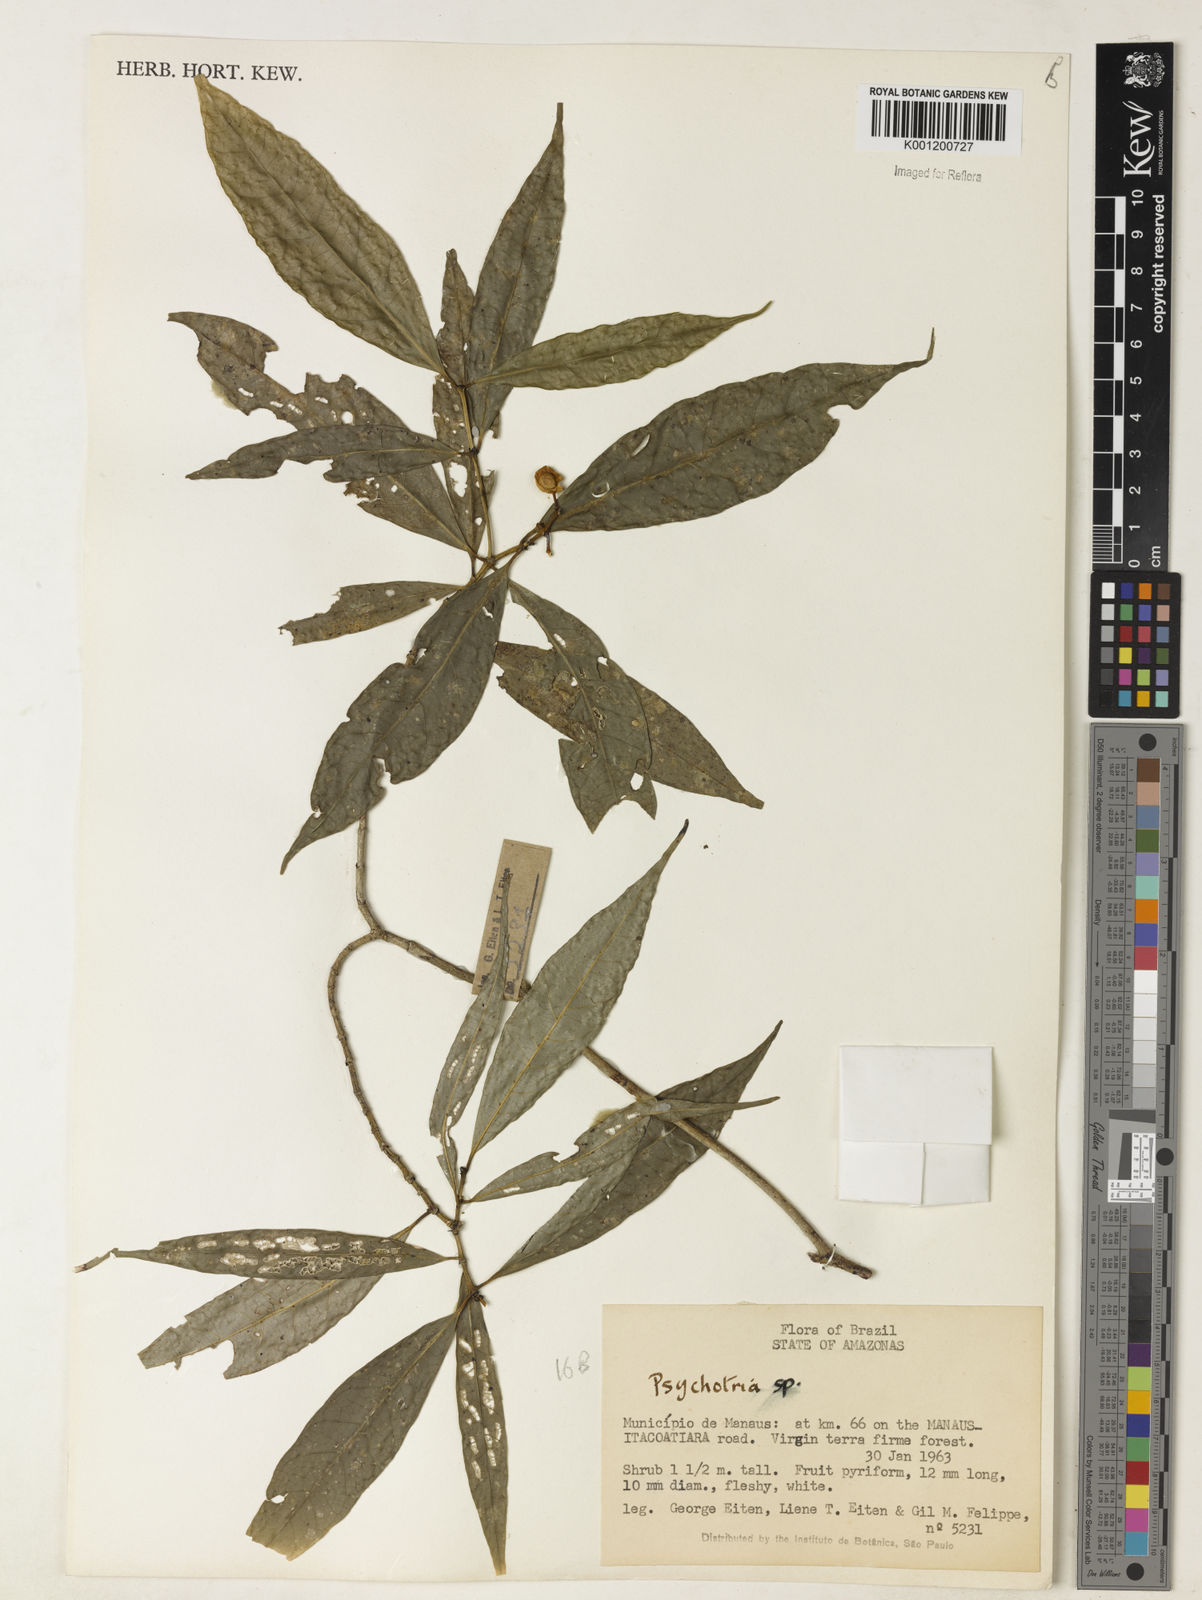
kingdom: Plantae
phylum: Tracheophyta
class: Magnoliopsida
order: Gentianales
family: Rubiaceae
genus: Psychotria
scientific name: Psychotria
